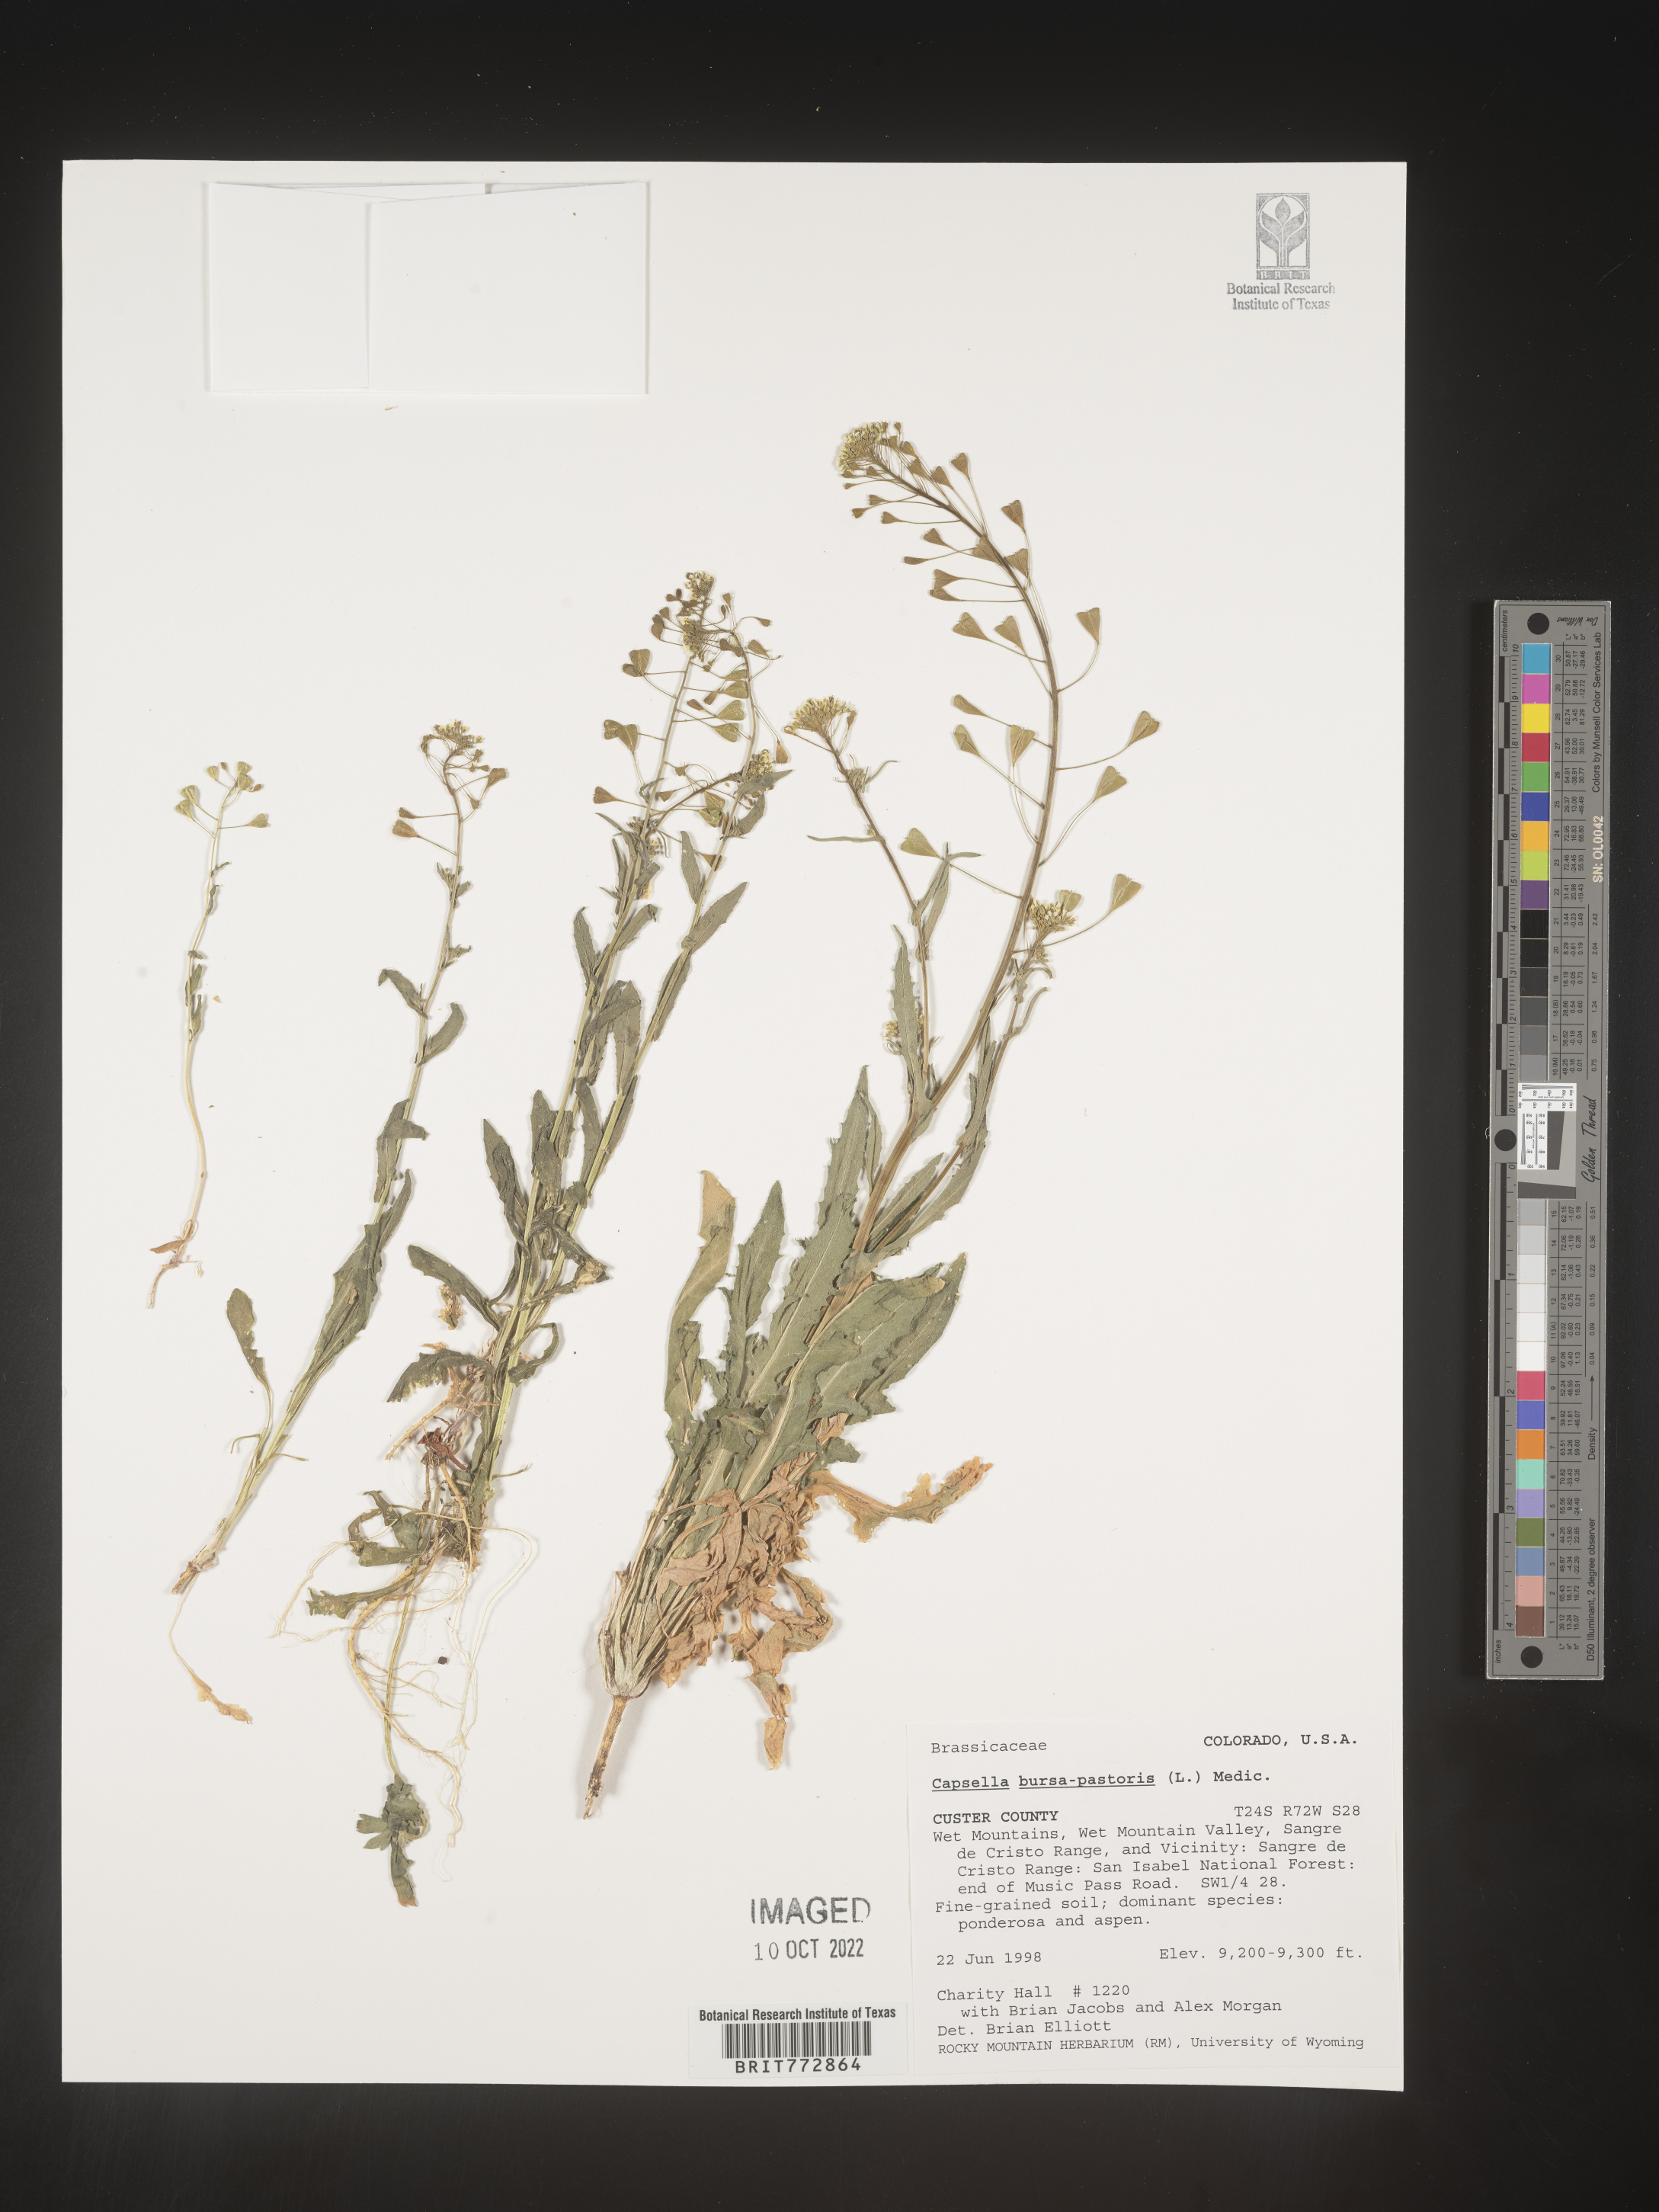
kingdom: Plantae
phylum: Tracheophyta
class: Magnoliopsida
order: Brassicales
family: Brassicaceae
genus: Capsella
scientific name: Capsella bursa-pastoris
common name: Shepherd's purse
